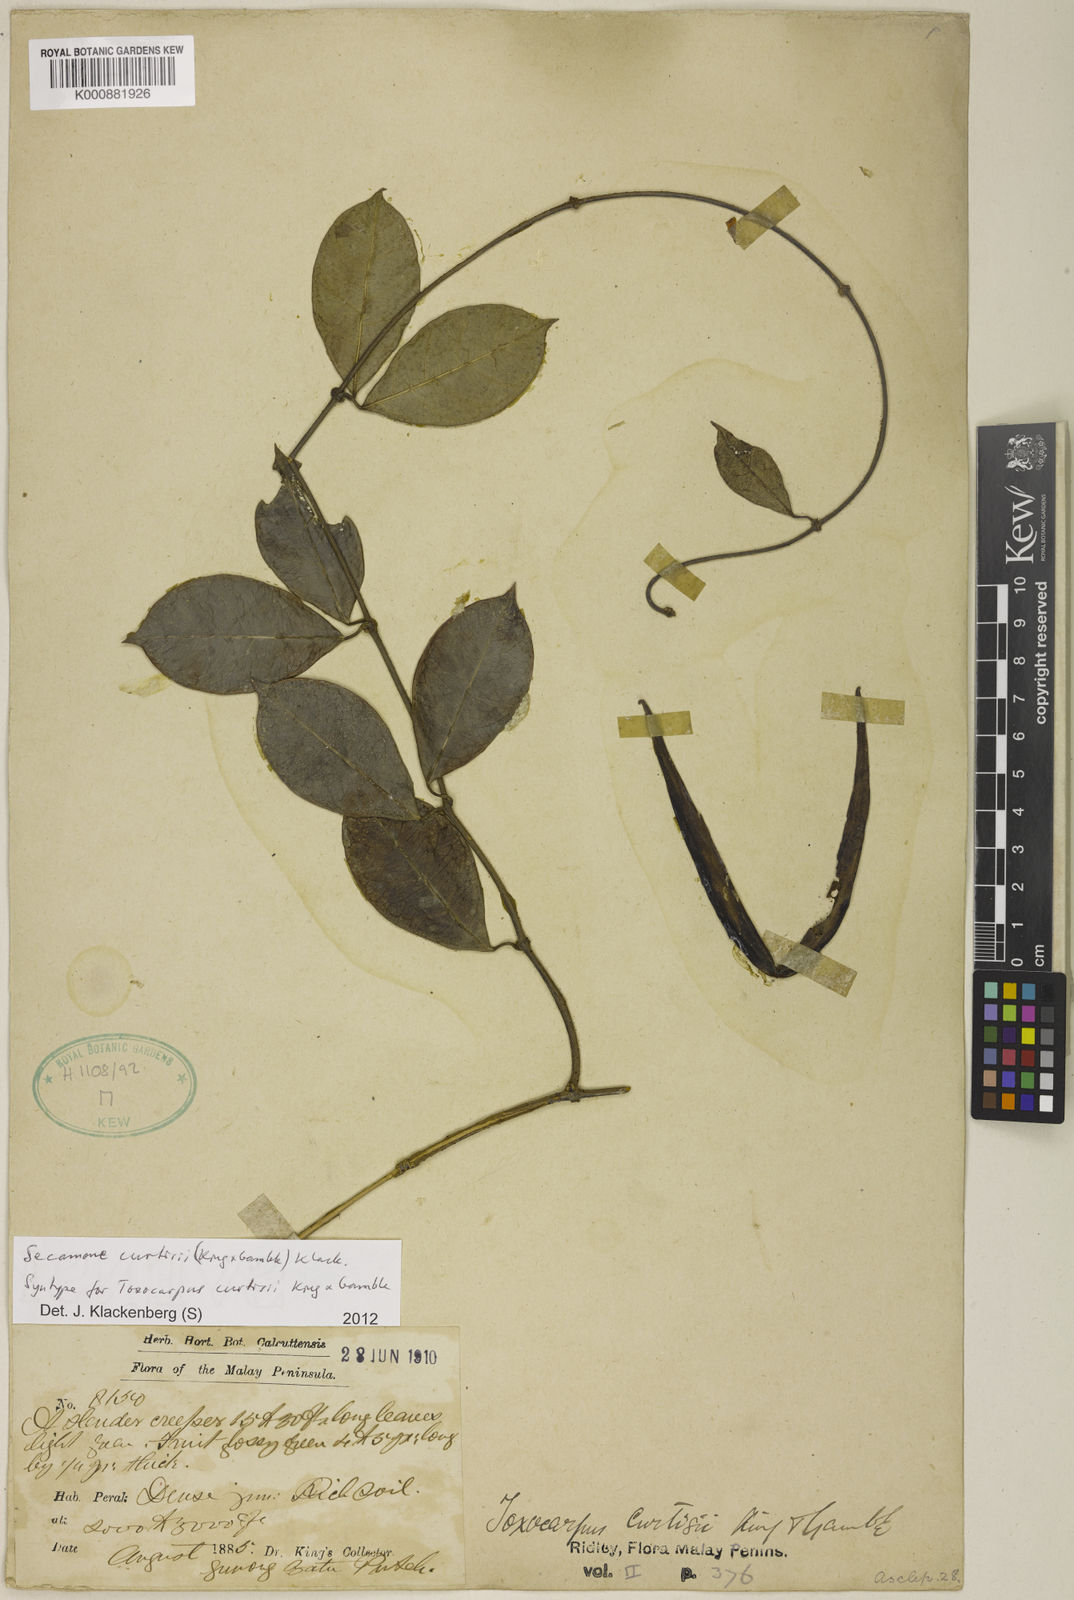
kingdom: Plantae
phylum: Tracheophyta
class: Magnoliopsida
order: Gentianales
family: Apocynaceae
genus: Secamone
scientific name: Secamone curtisii
